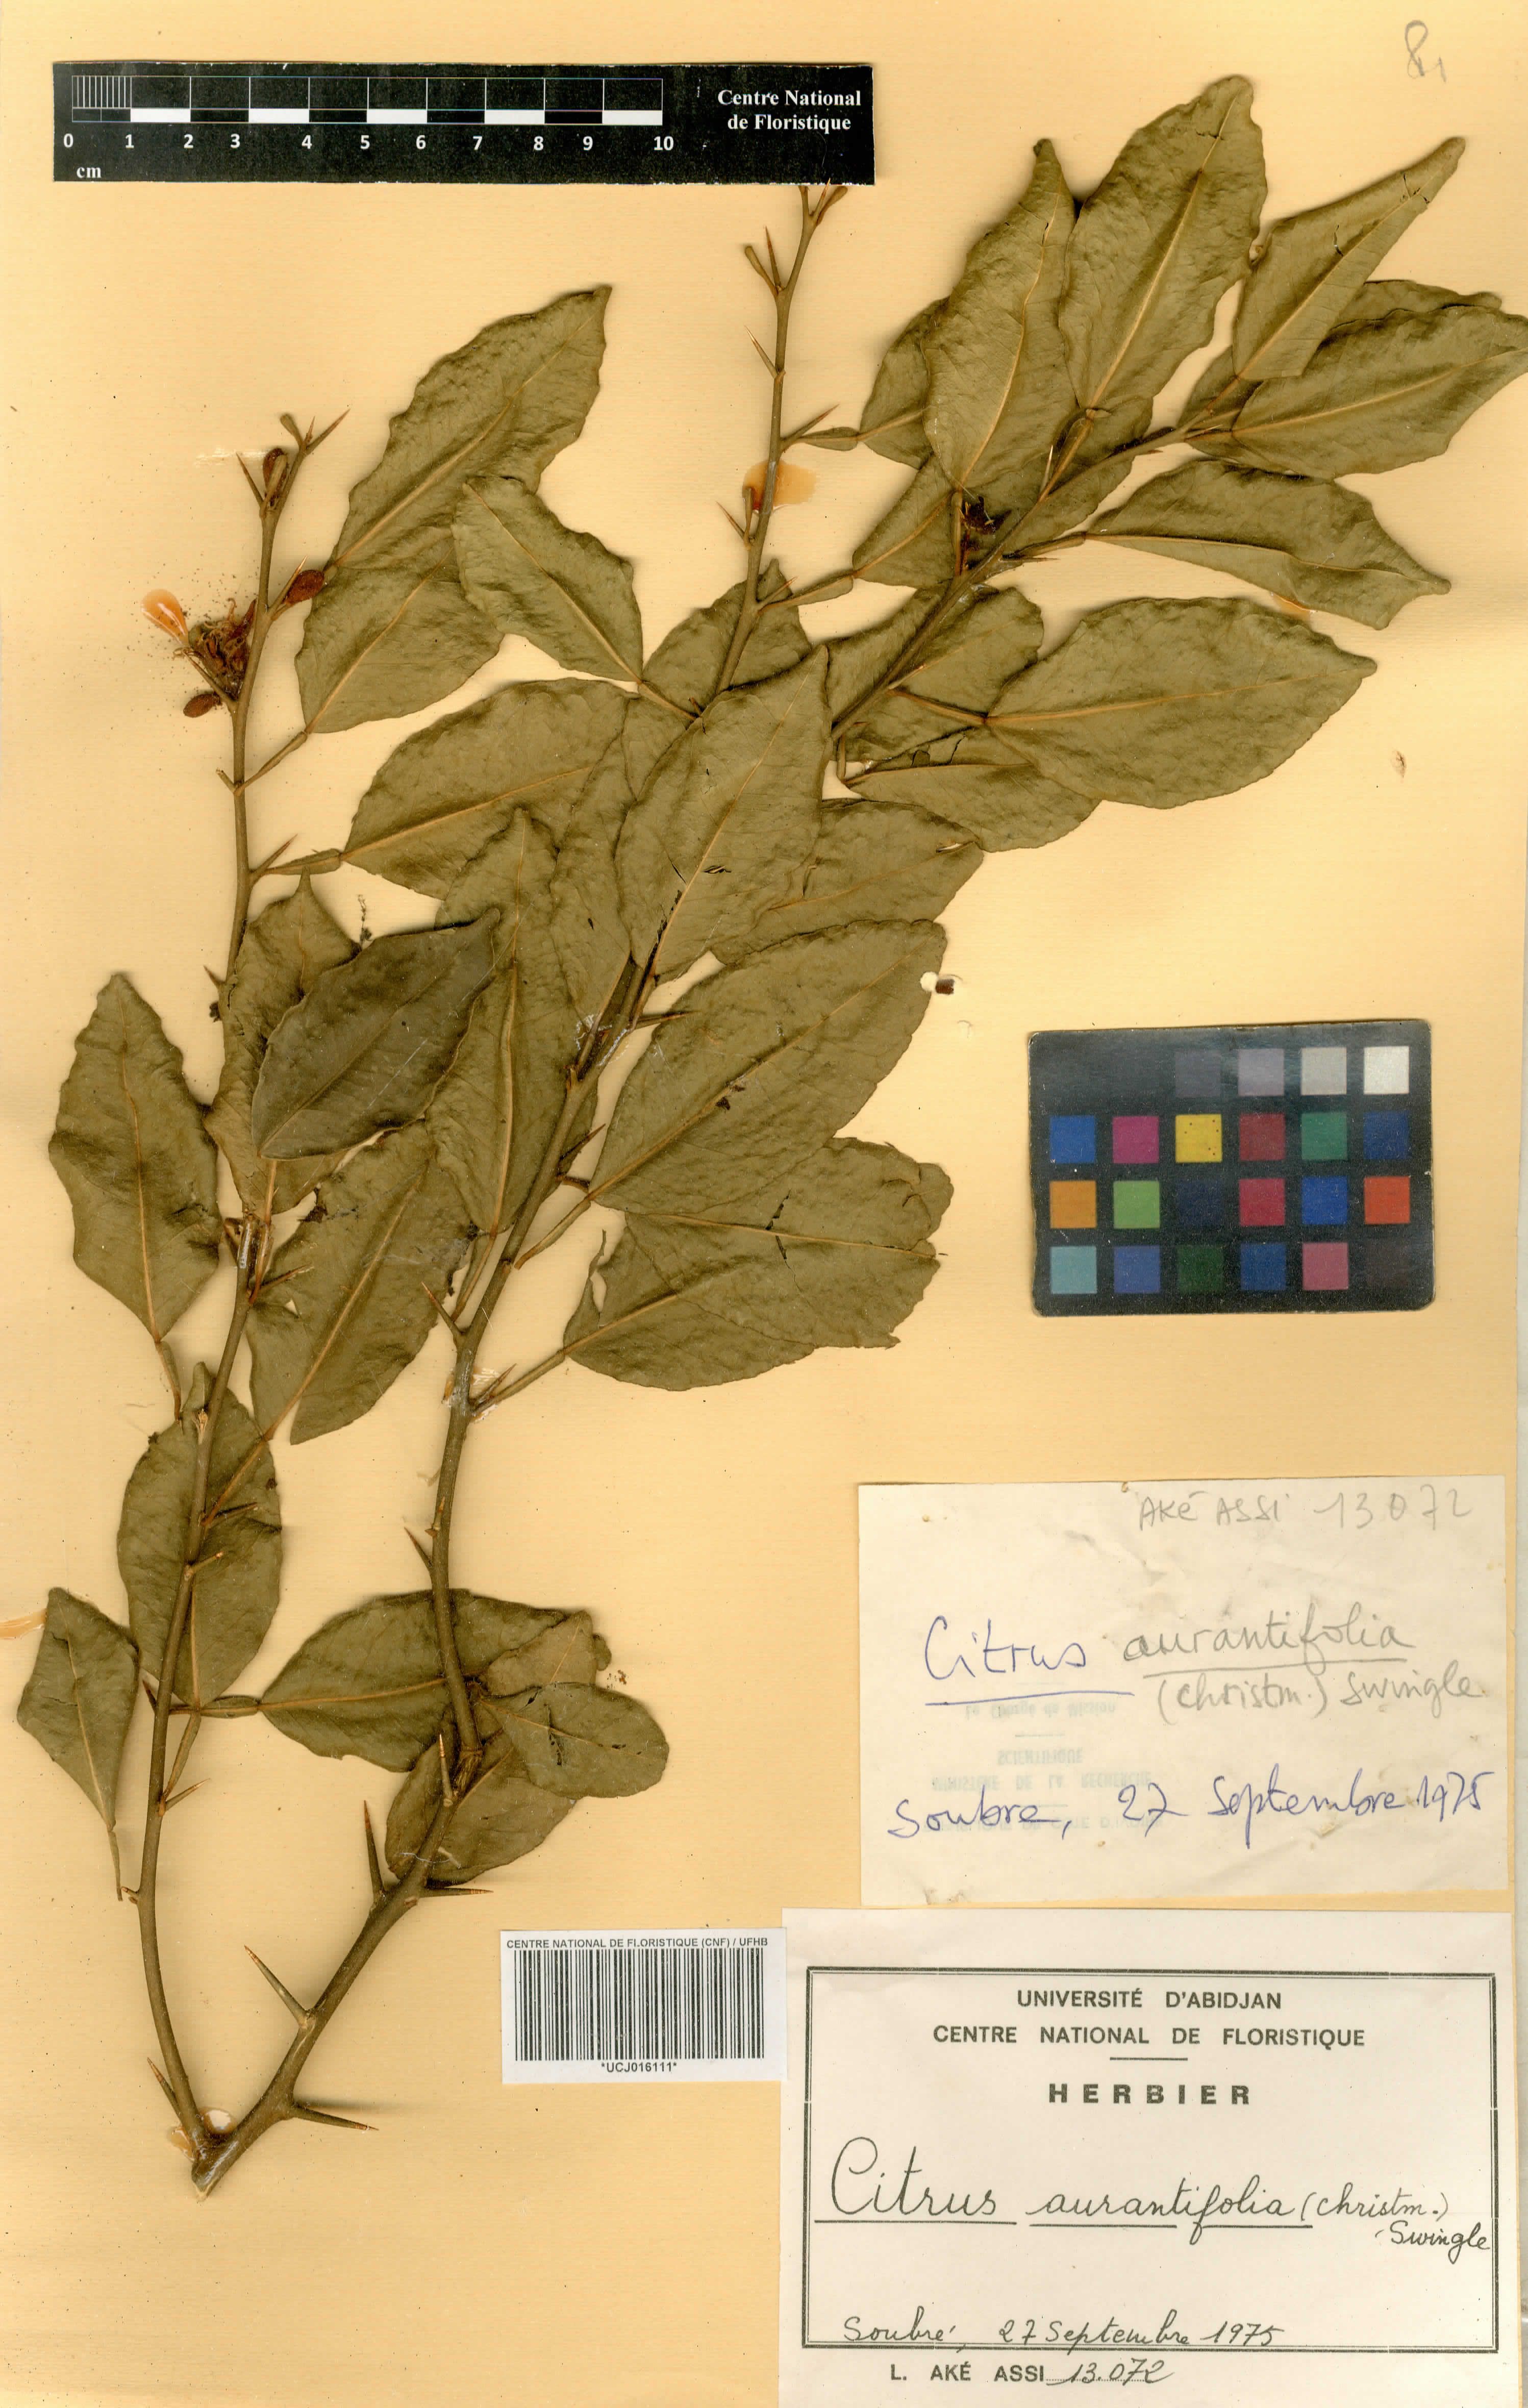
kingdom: Plantae
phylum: Tracheophyta
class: Magnoliopsida
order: Sapindales
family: Rutaceae
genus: Citrus
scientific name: Citrus latipes
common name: Khasi-papeda
